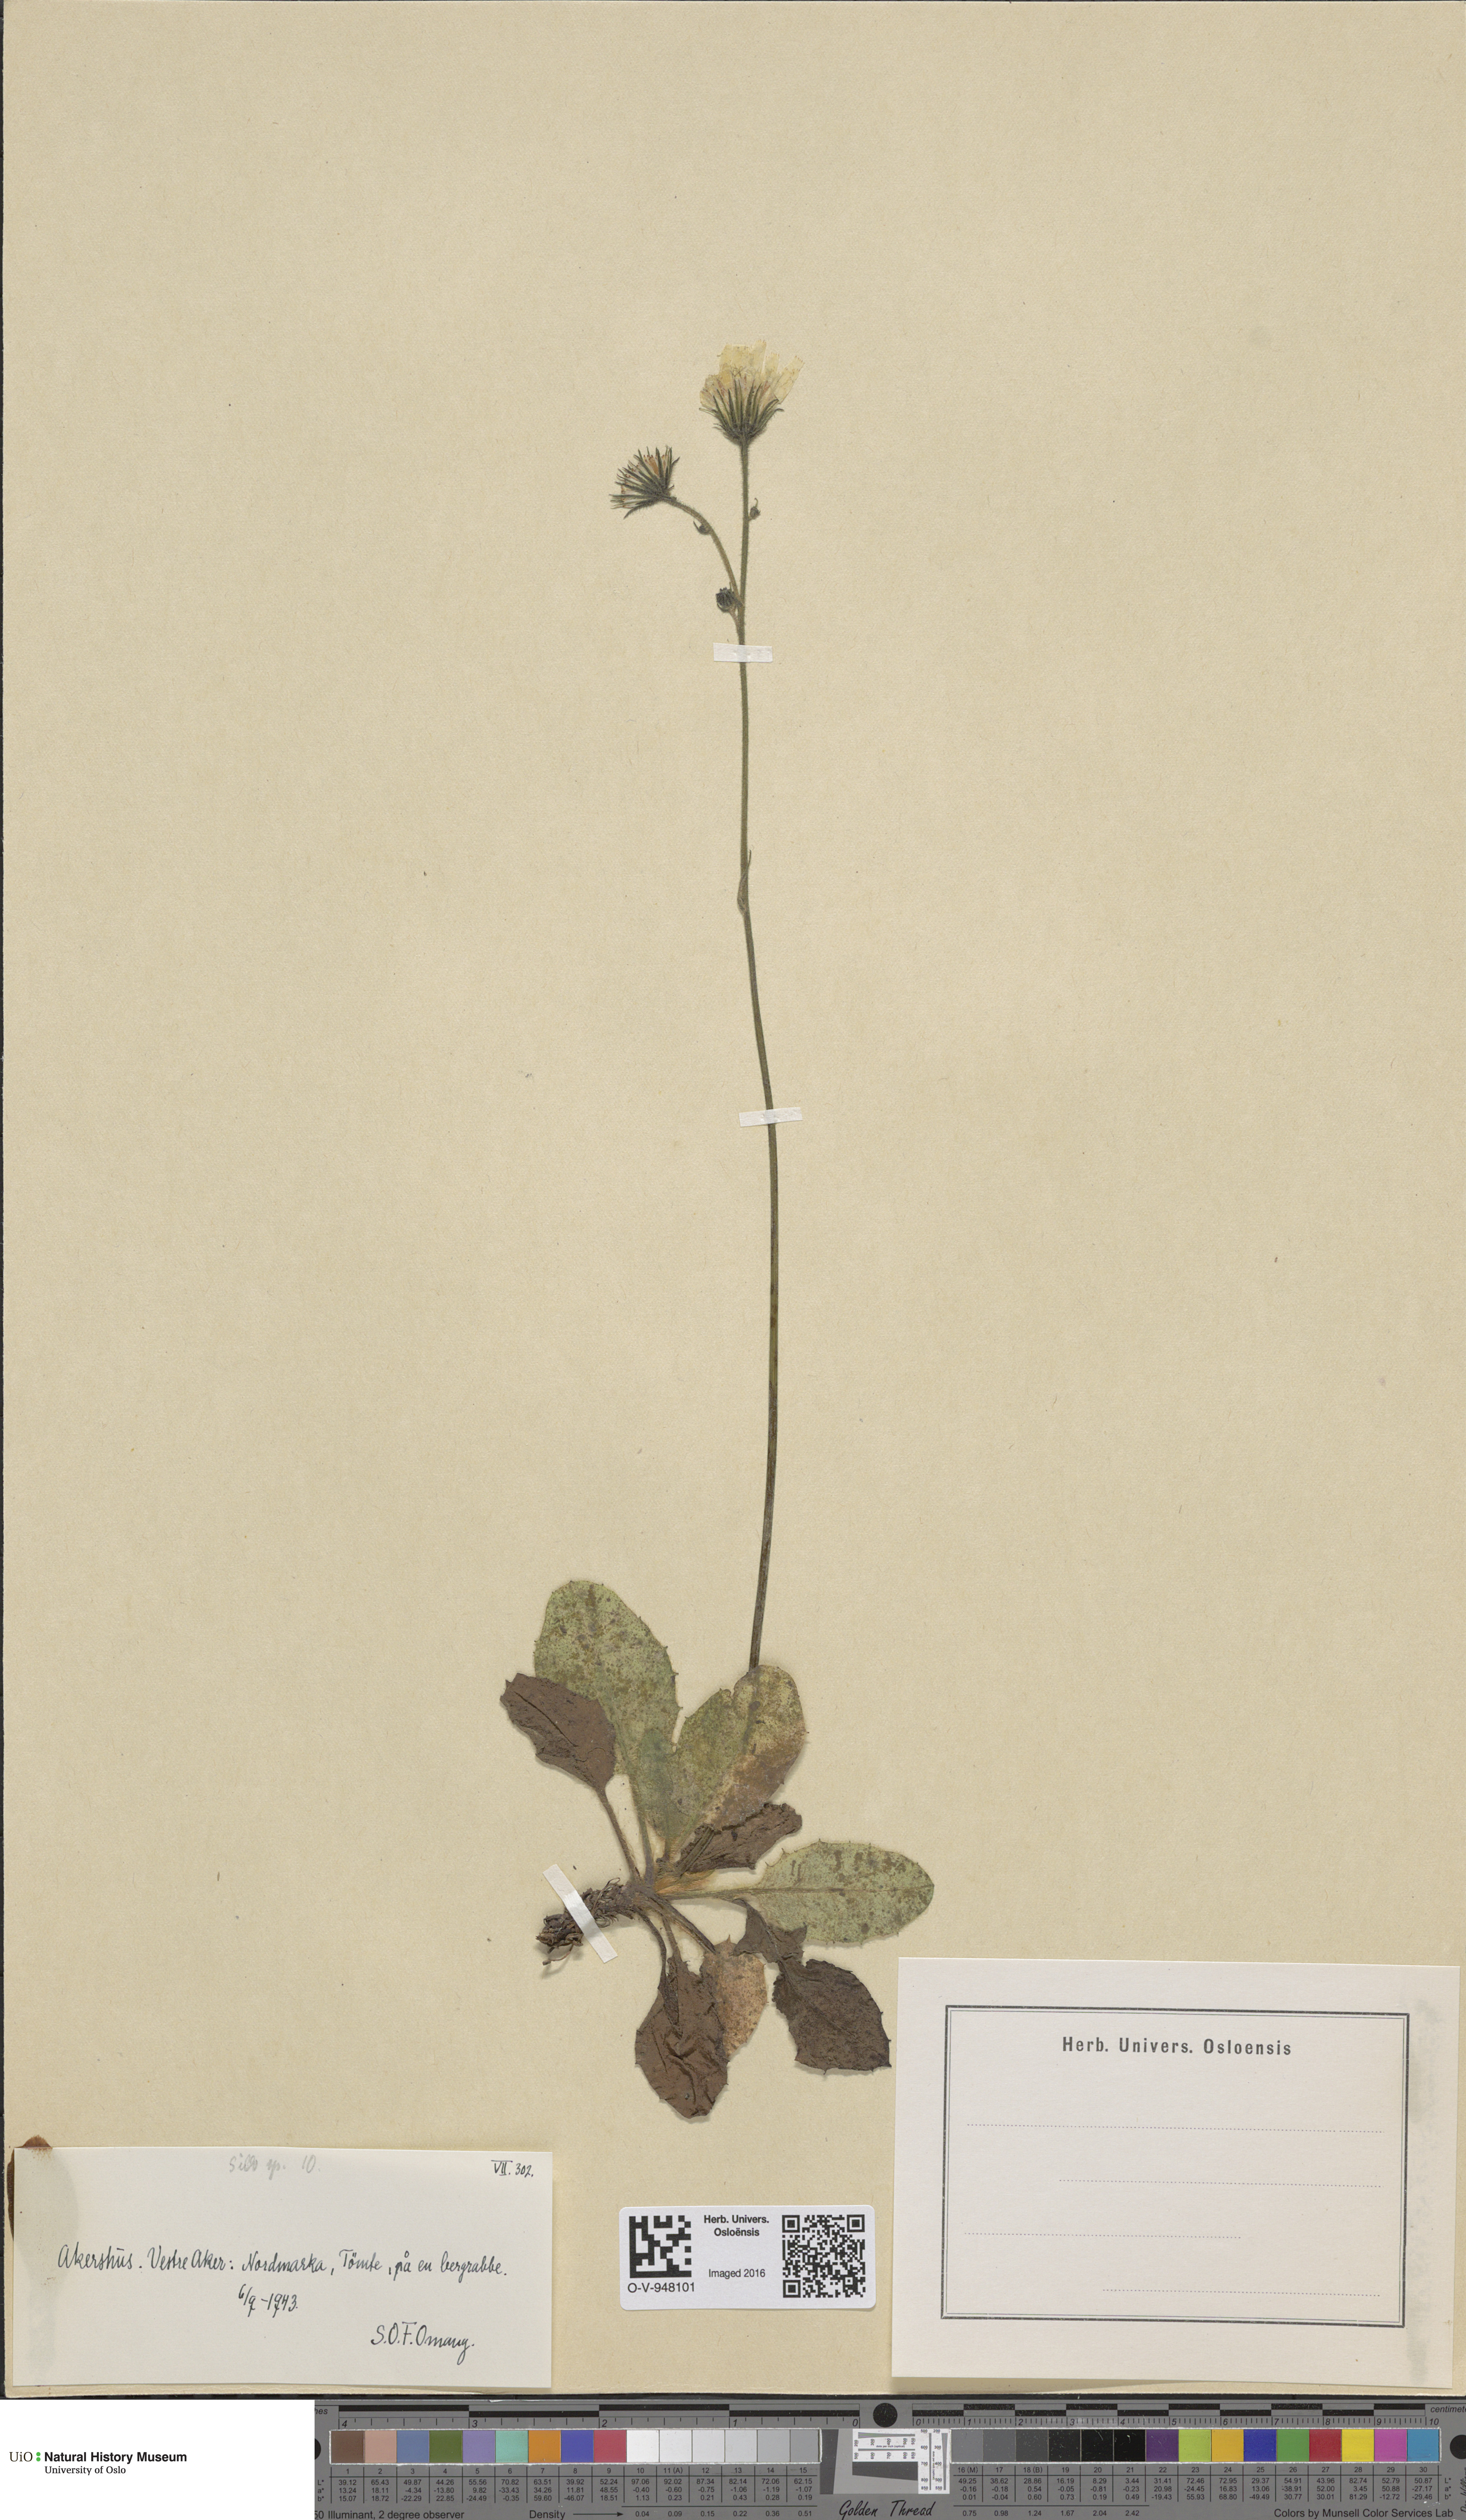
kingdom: Plantae
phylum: Tracheophyta
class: Magnoliopsida
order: Asterales
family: Asteraceae
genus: Hieracium
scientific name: Hieracium
